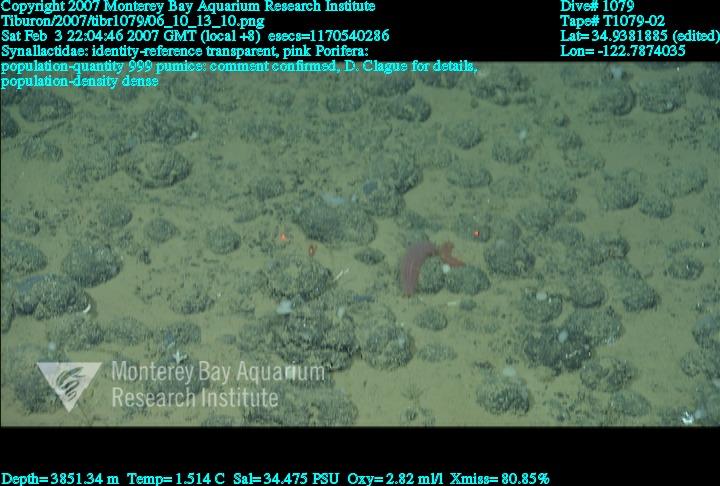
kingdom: Animalia
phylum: Porifera
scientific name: Porifera
